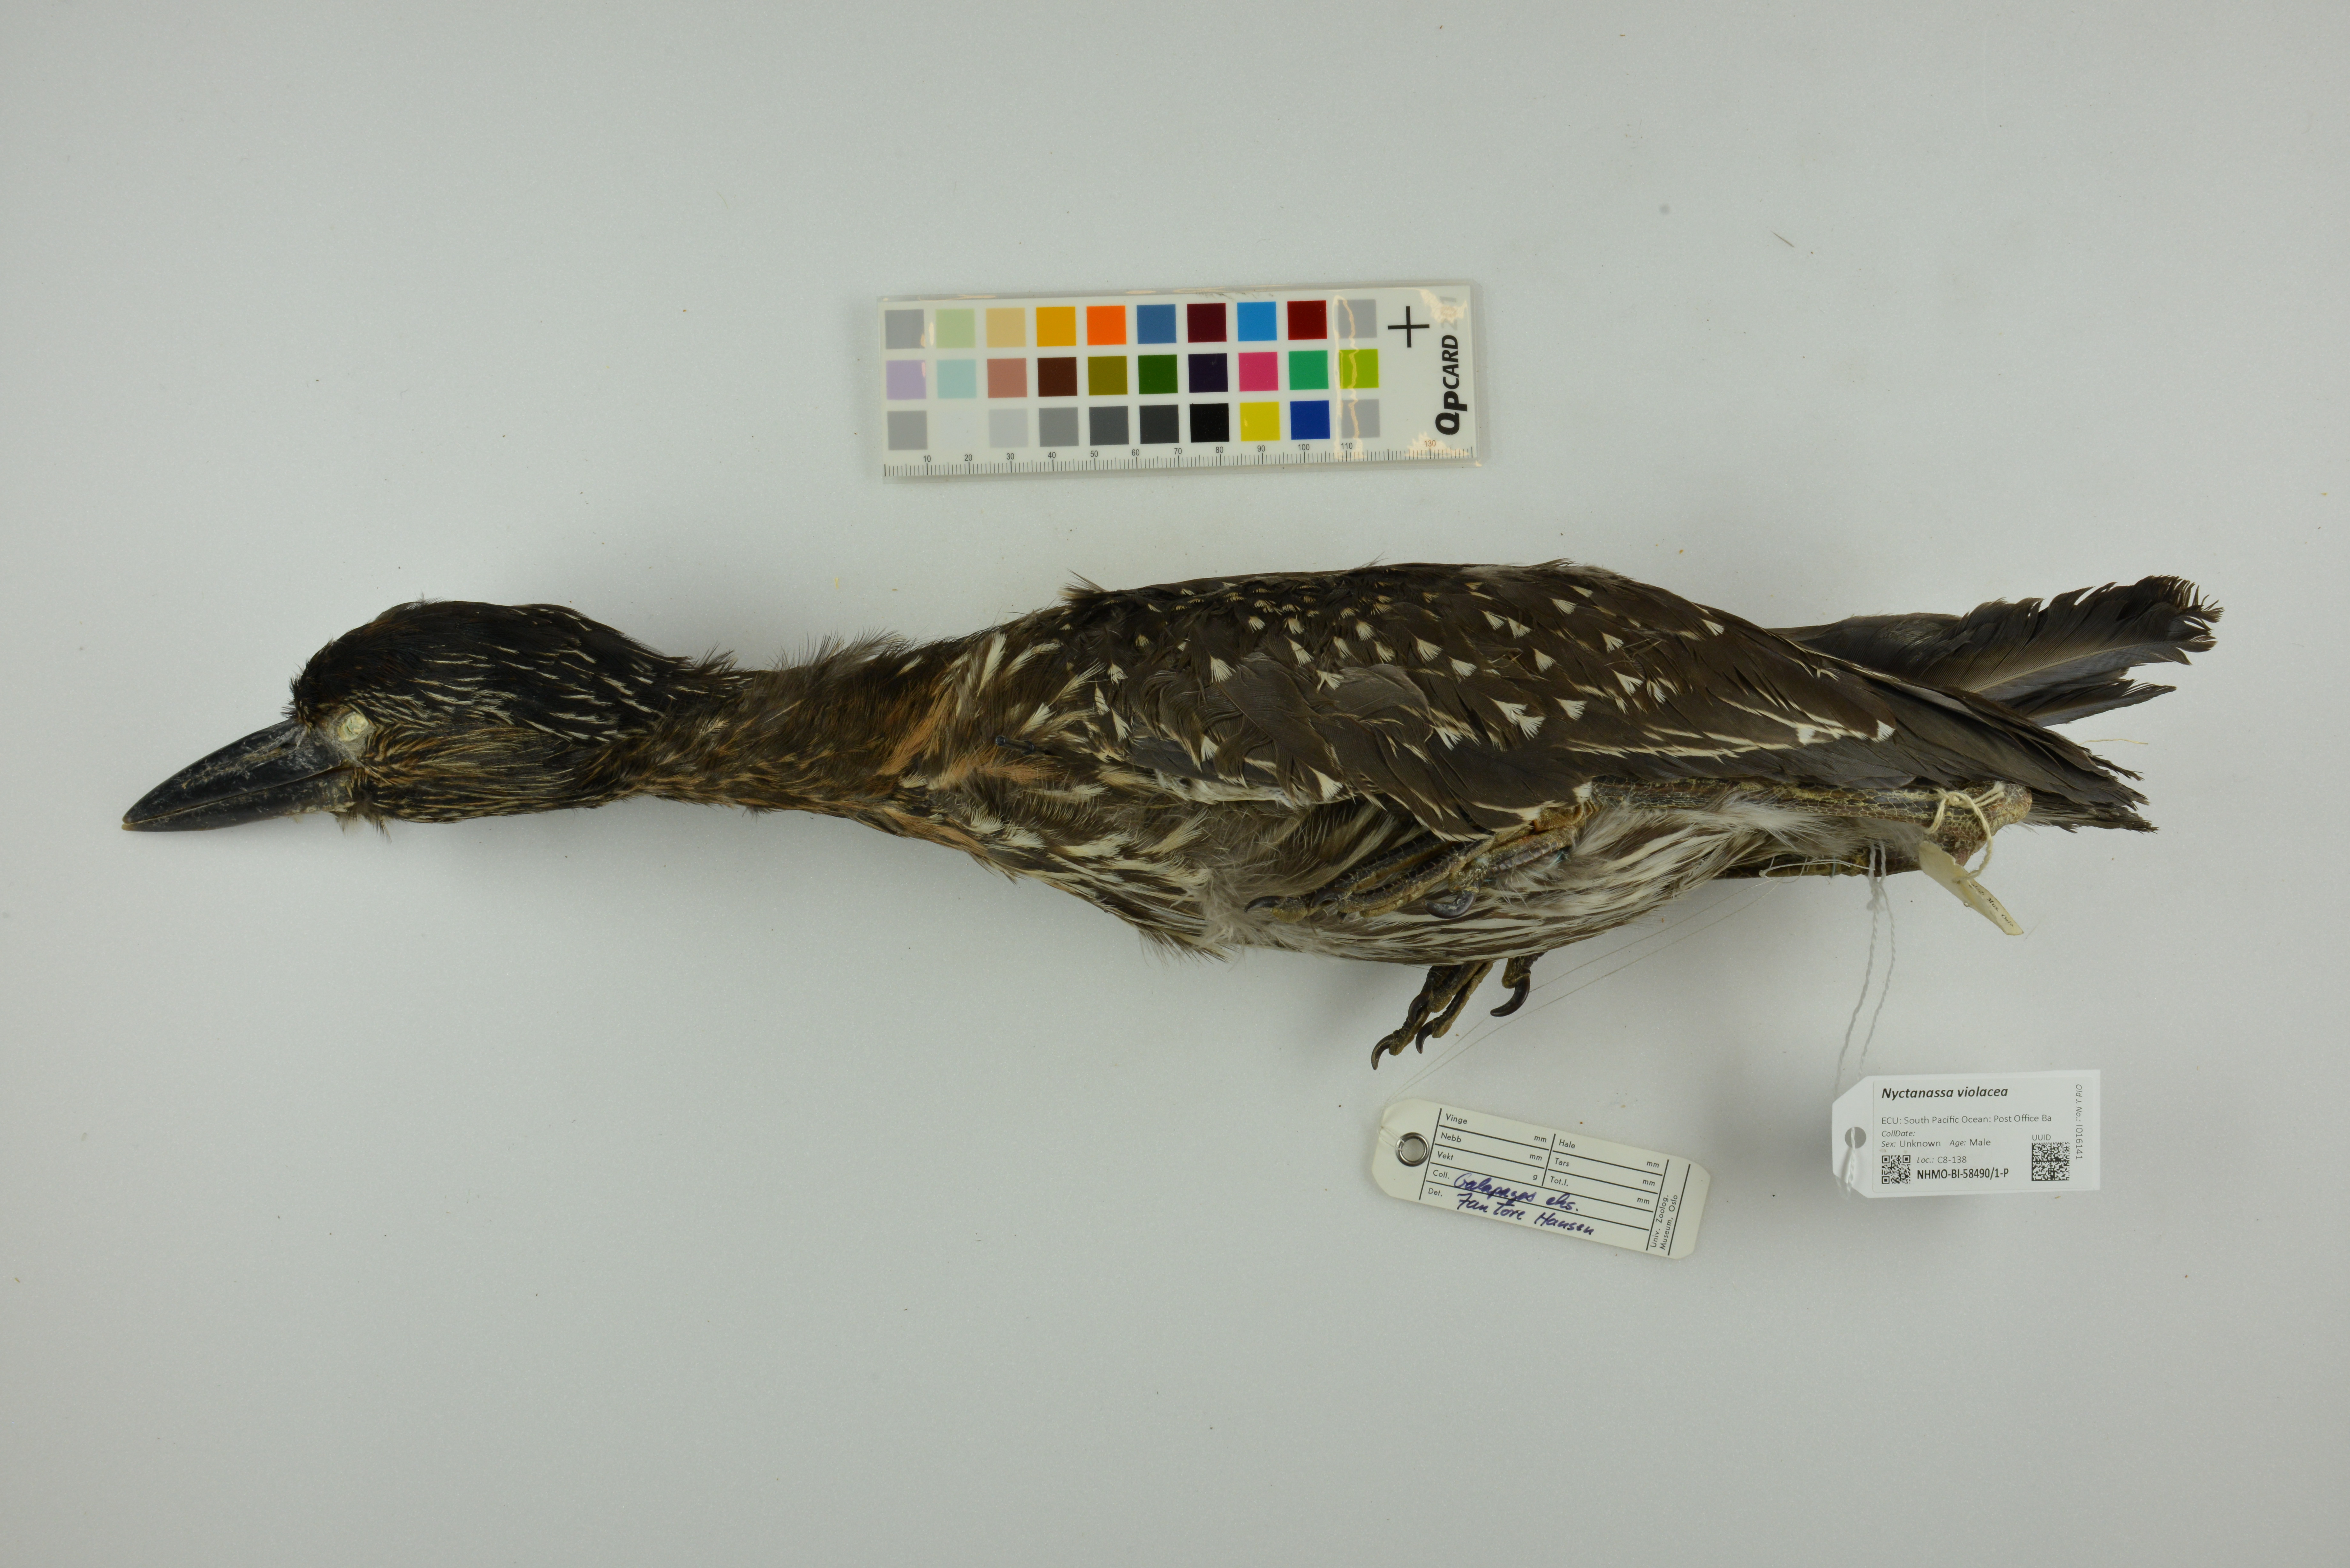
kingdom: Animalia
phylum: Chordata
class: Aves
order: Pelecaniformes
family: Ardeidae
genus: Nyctanassa
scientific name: Nyctanassa violacea
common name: Yellow-crowned night heron
